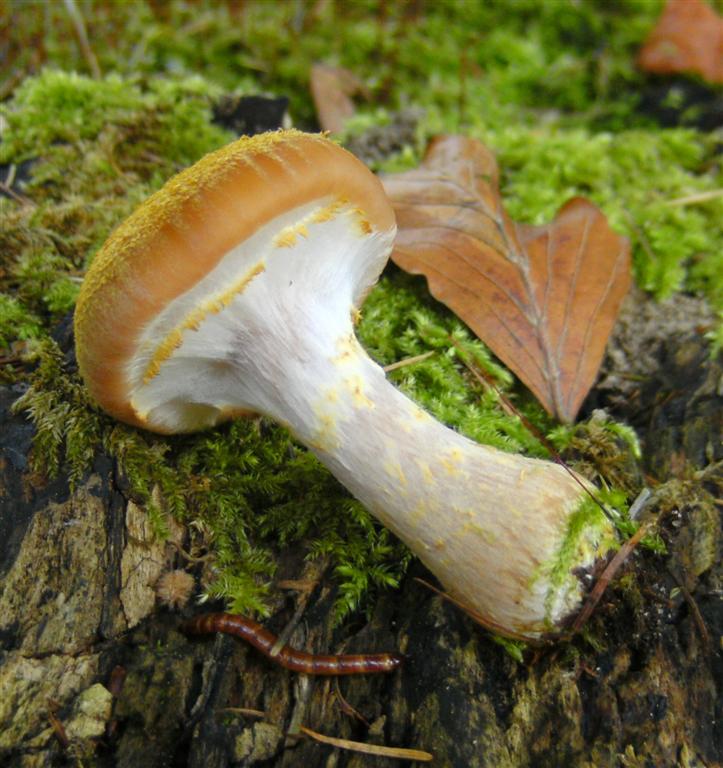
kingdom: Fungi
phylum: Basidiomycota
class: Agaricomycetes
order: Agaricales
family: Physalacriaceae
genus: Armillaria
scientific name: Armillaria lutea
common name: køllestokket honningsvamp
